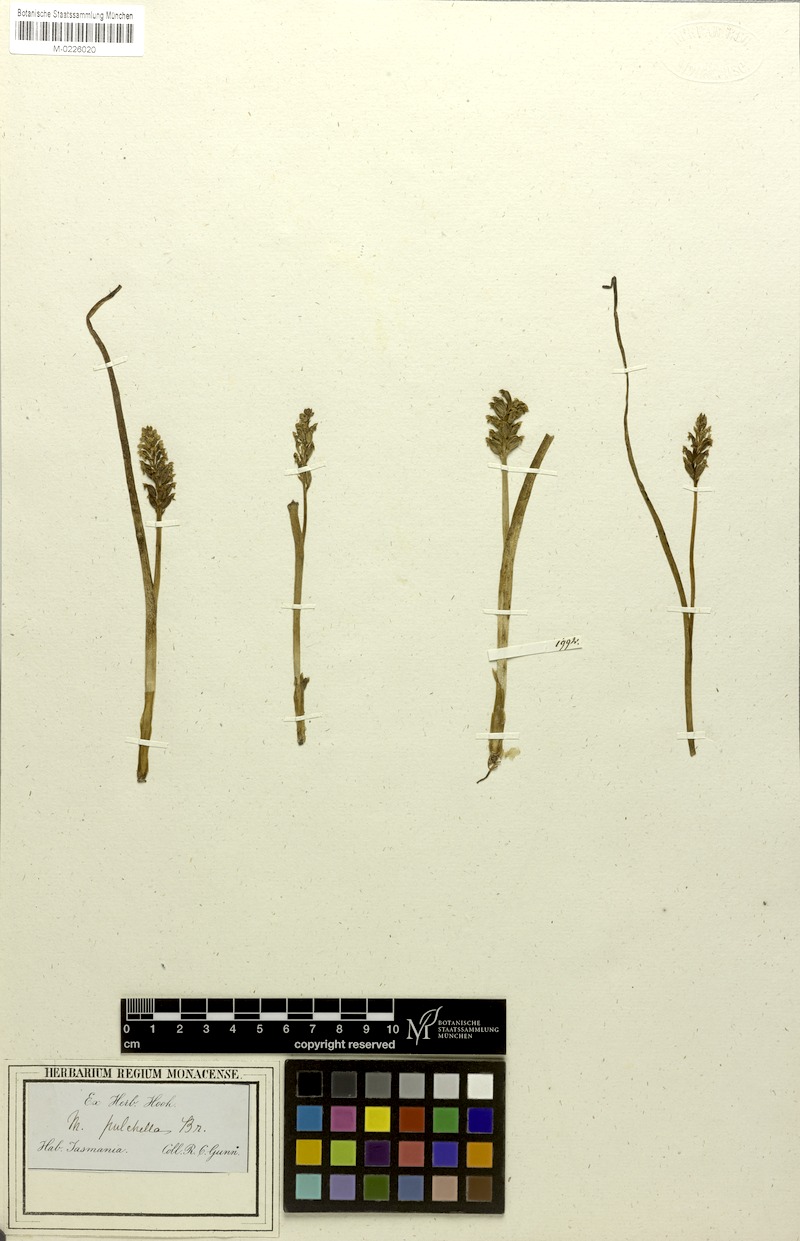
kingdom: Plantae
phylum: Tracheophyta
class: Liliopsida
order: Asparagales
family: Orchidaceae
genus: Microtis
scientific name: Microtis pulchella
